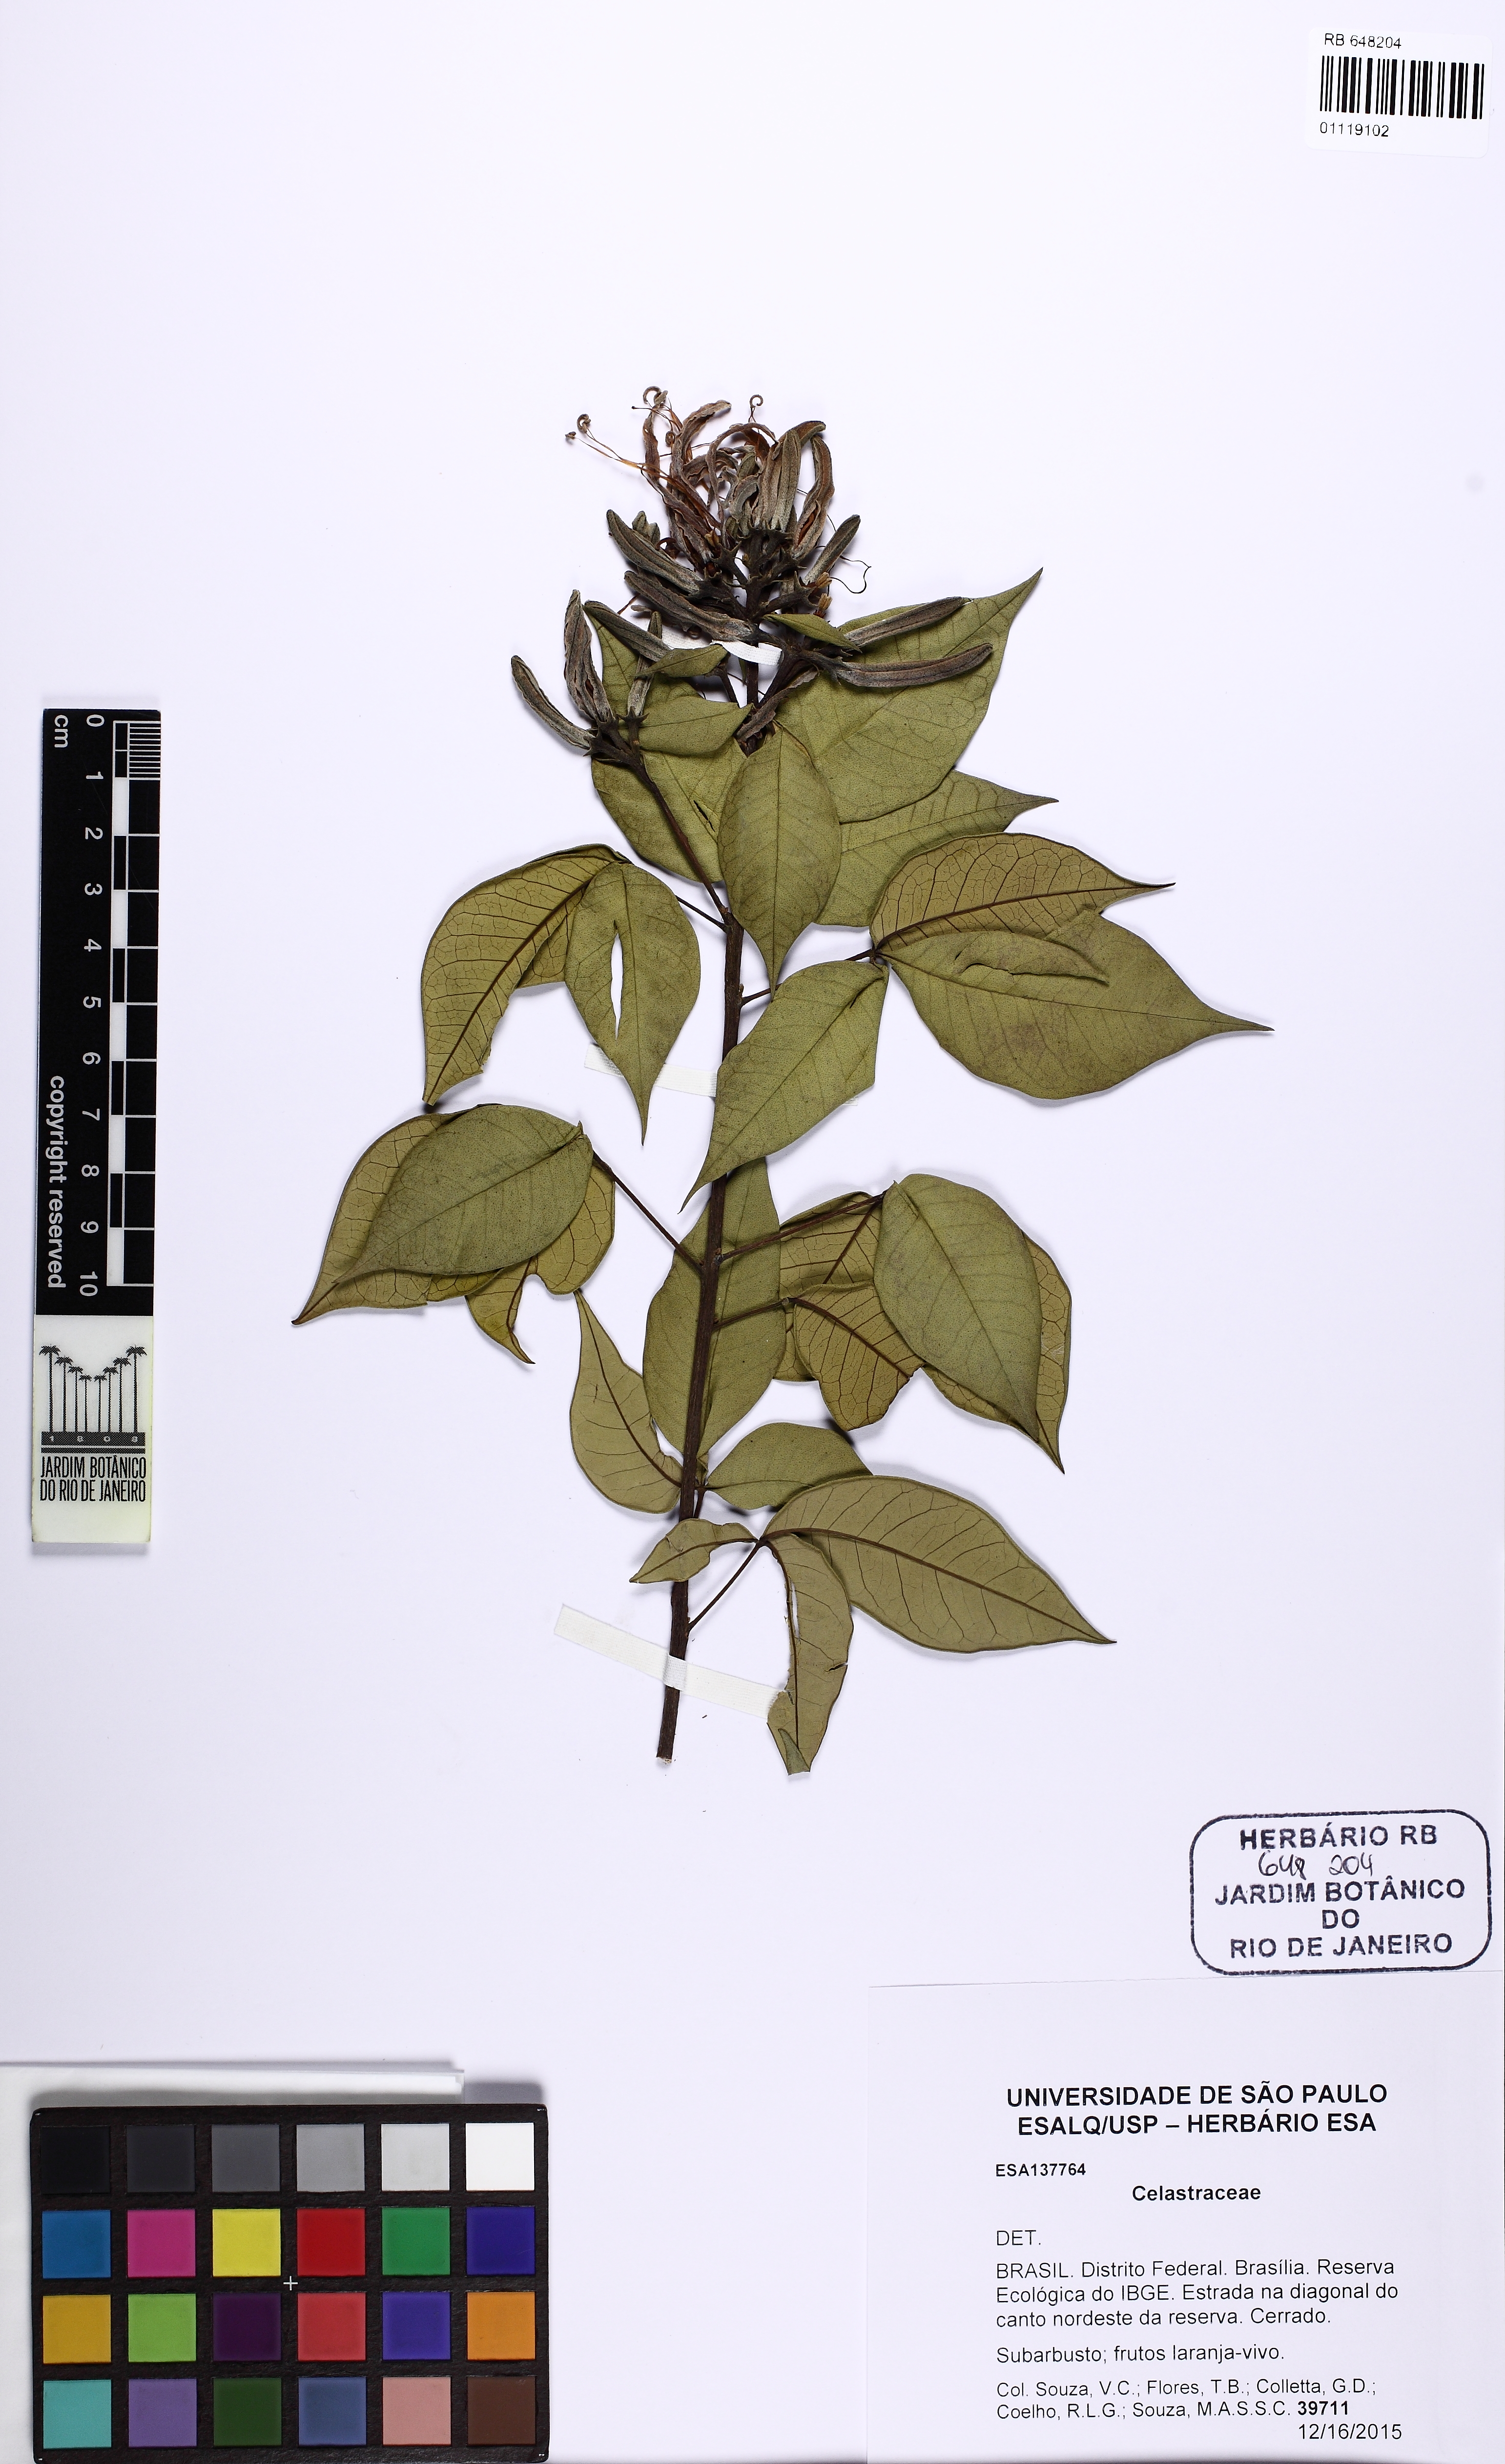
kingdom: Plantae
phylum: Tracheophyta
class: Magnoliopsida
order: Celastrales
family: Celastraceae
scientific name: Celastraceae
